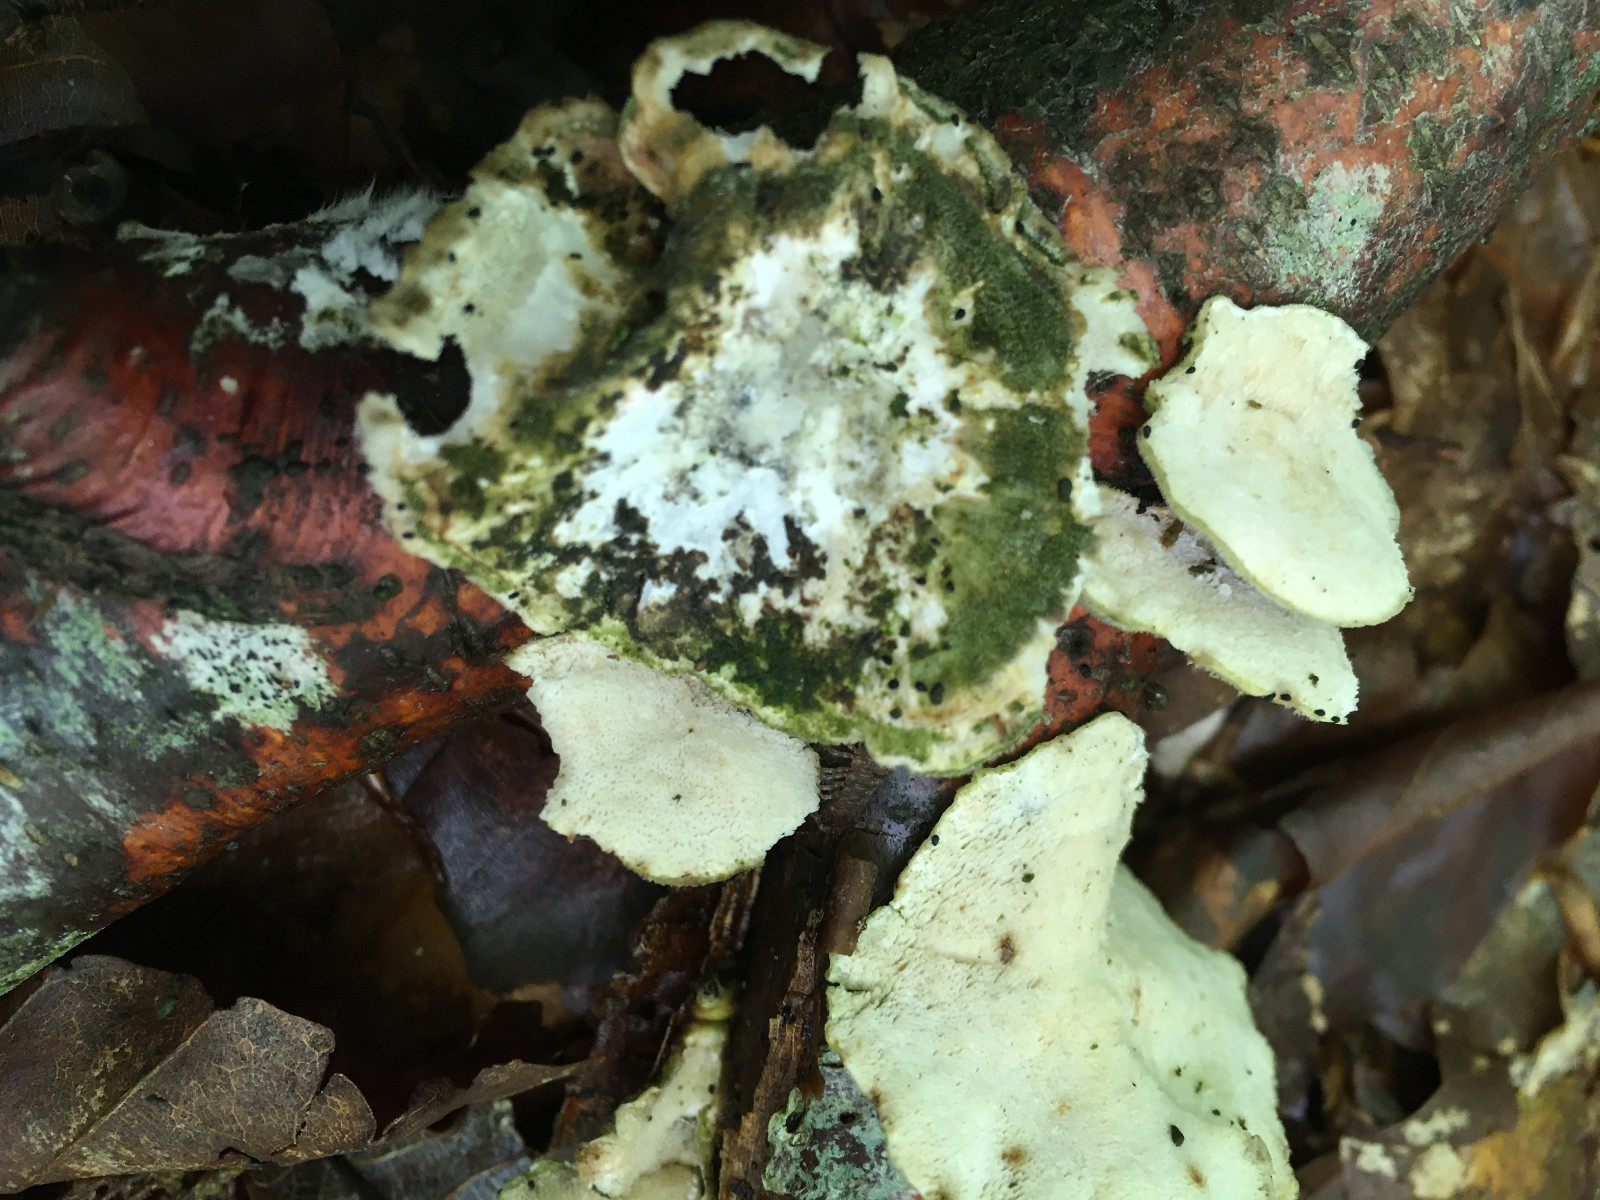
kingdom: Fungi
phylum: Basidiomycota
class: Agaricomycetes
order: Polyporales
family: Polyporaceae
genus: Trametes
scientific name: Trametes
